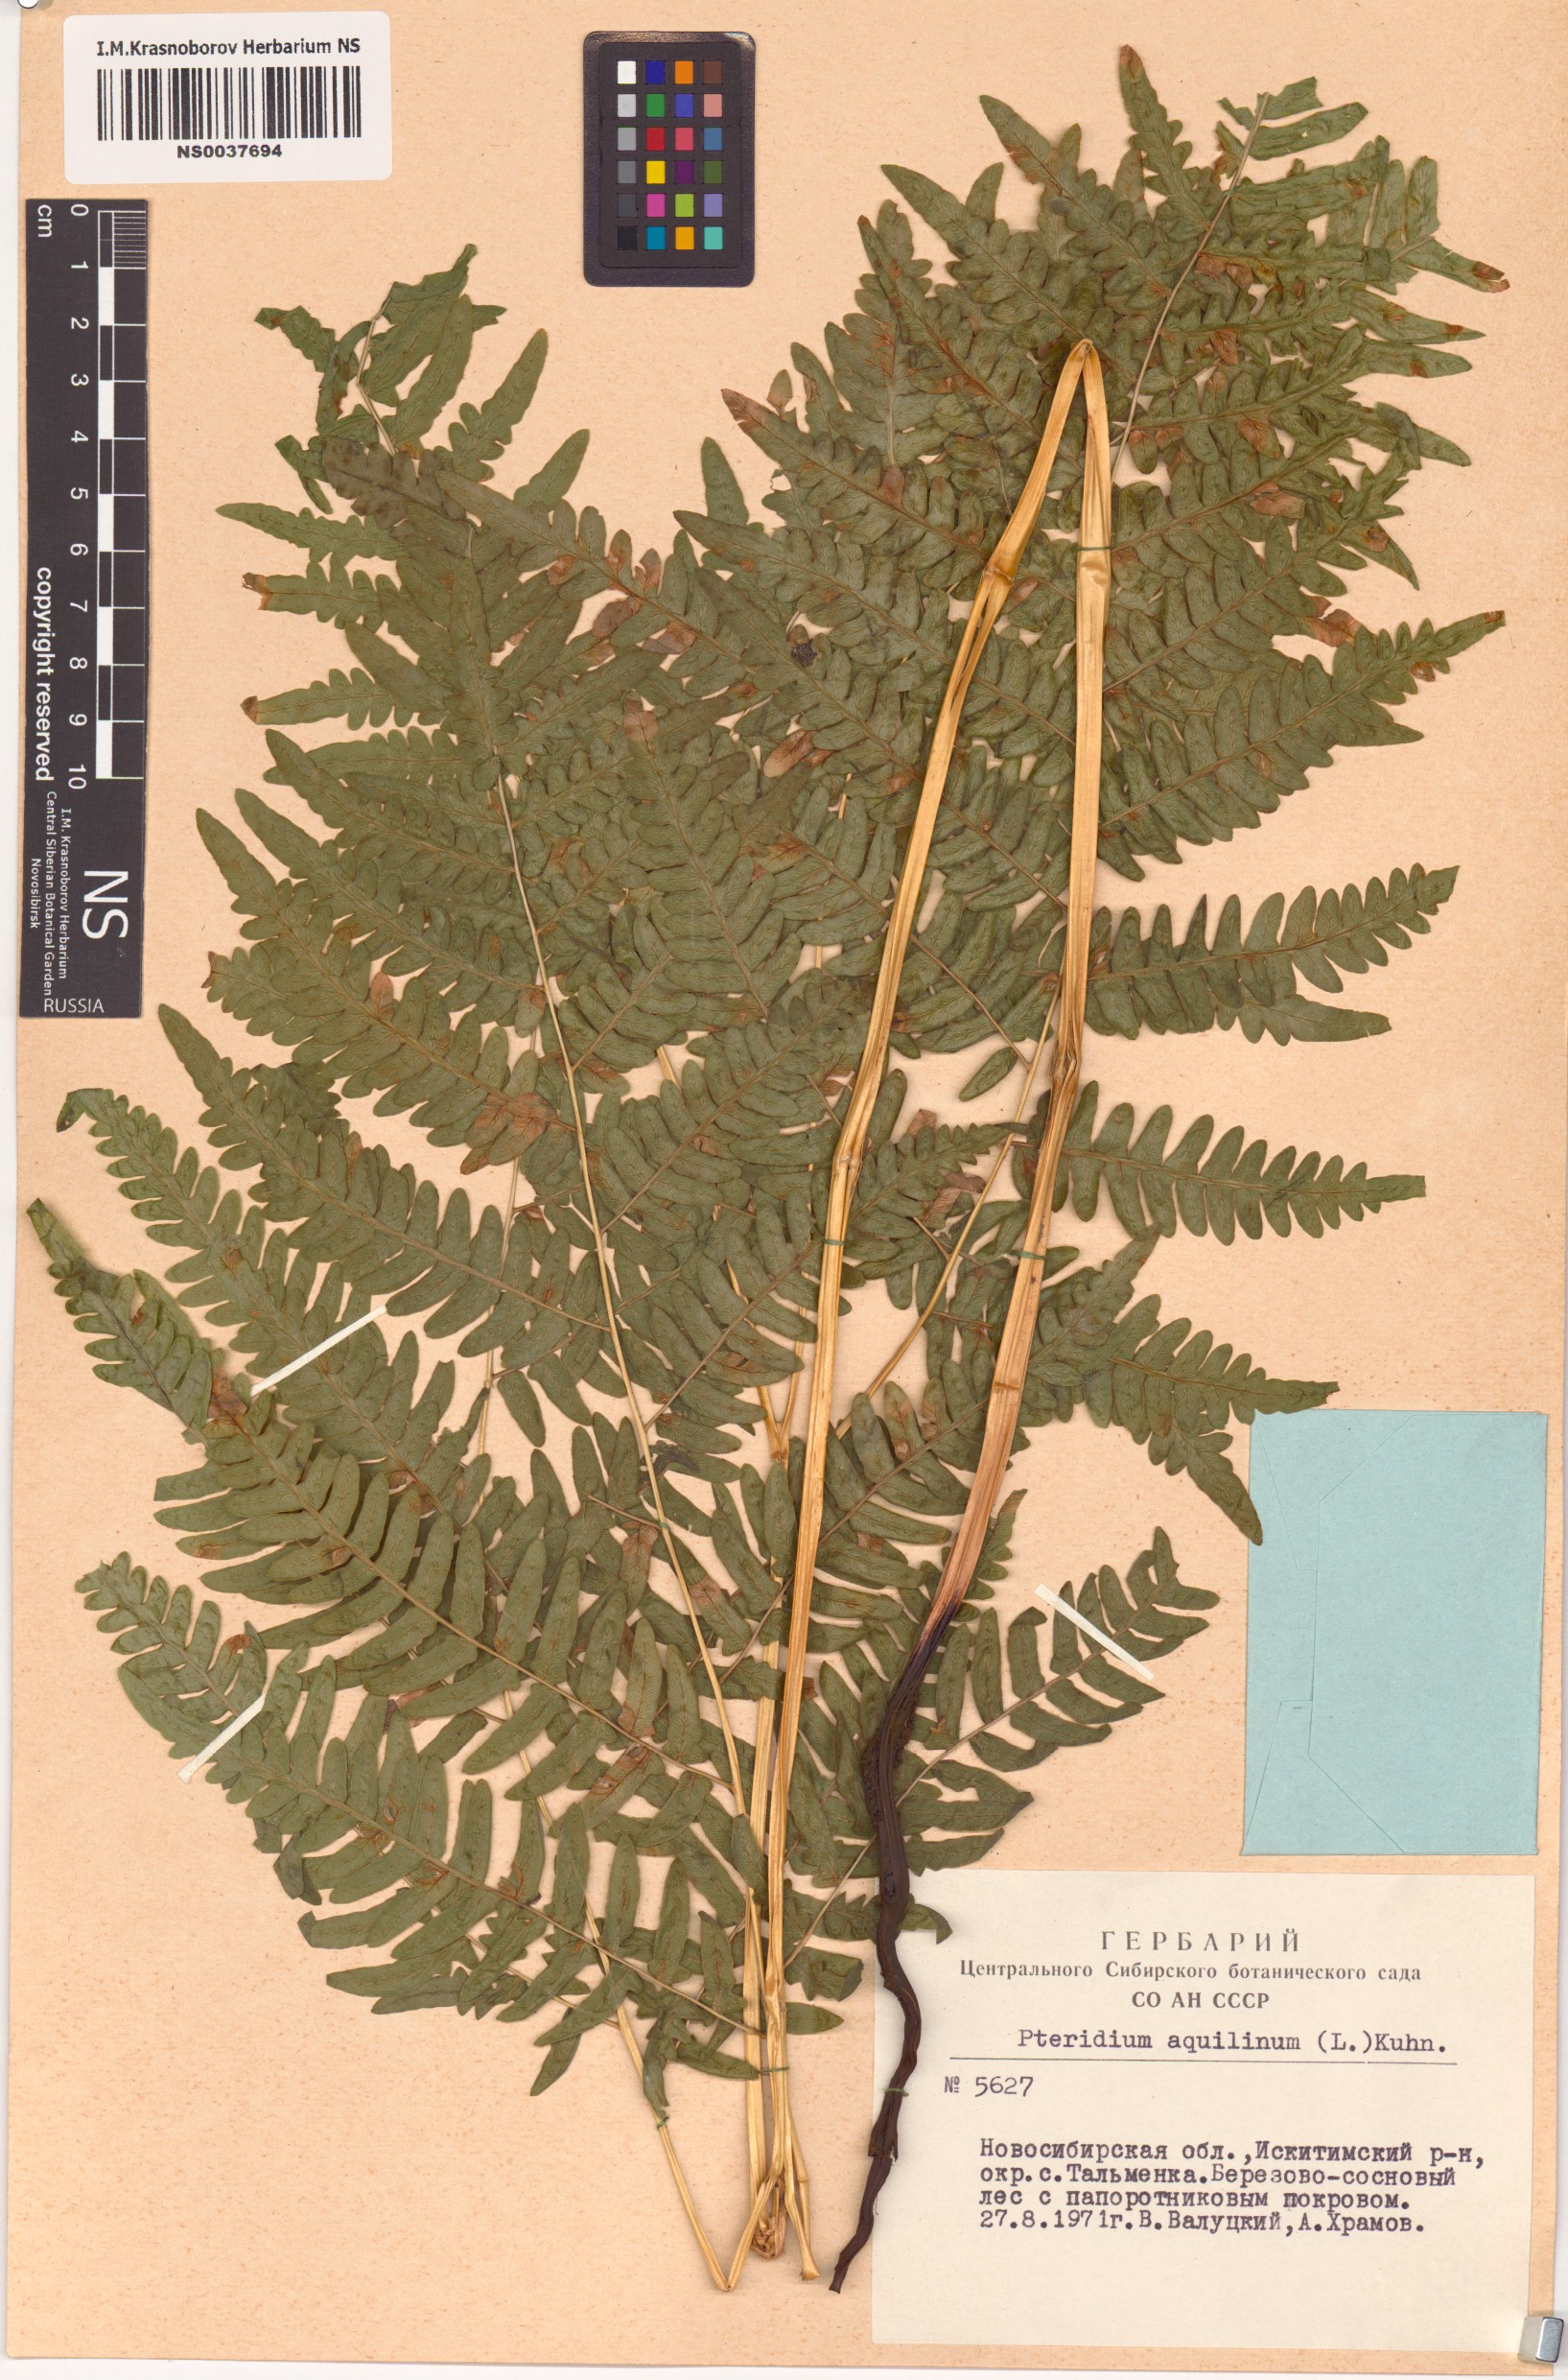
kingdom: Plantae
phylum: Tracheophyta
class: Polypodiopsida
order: Polypodiales
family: Dennstaedtiaceae
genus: Pteridium
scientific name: Pteridium aquilinum
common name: Bracken
